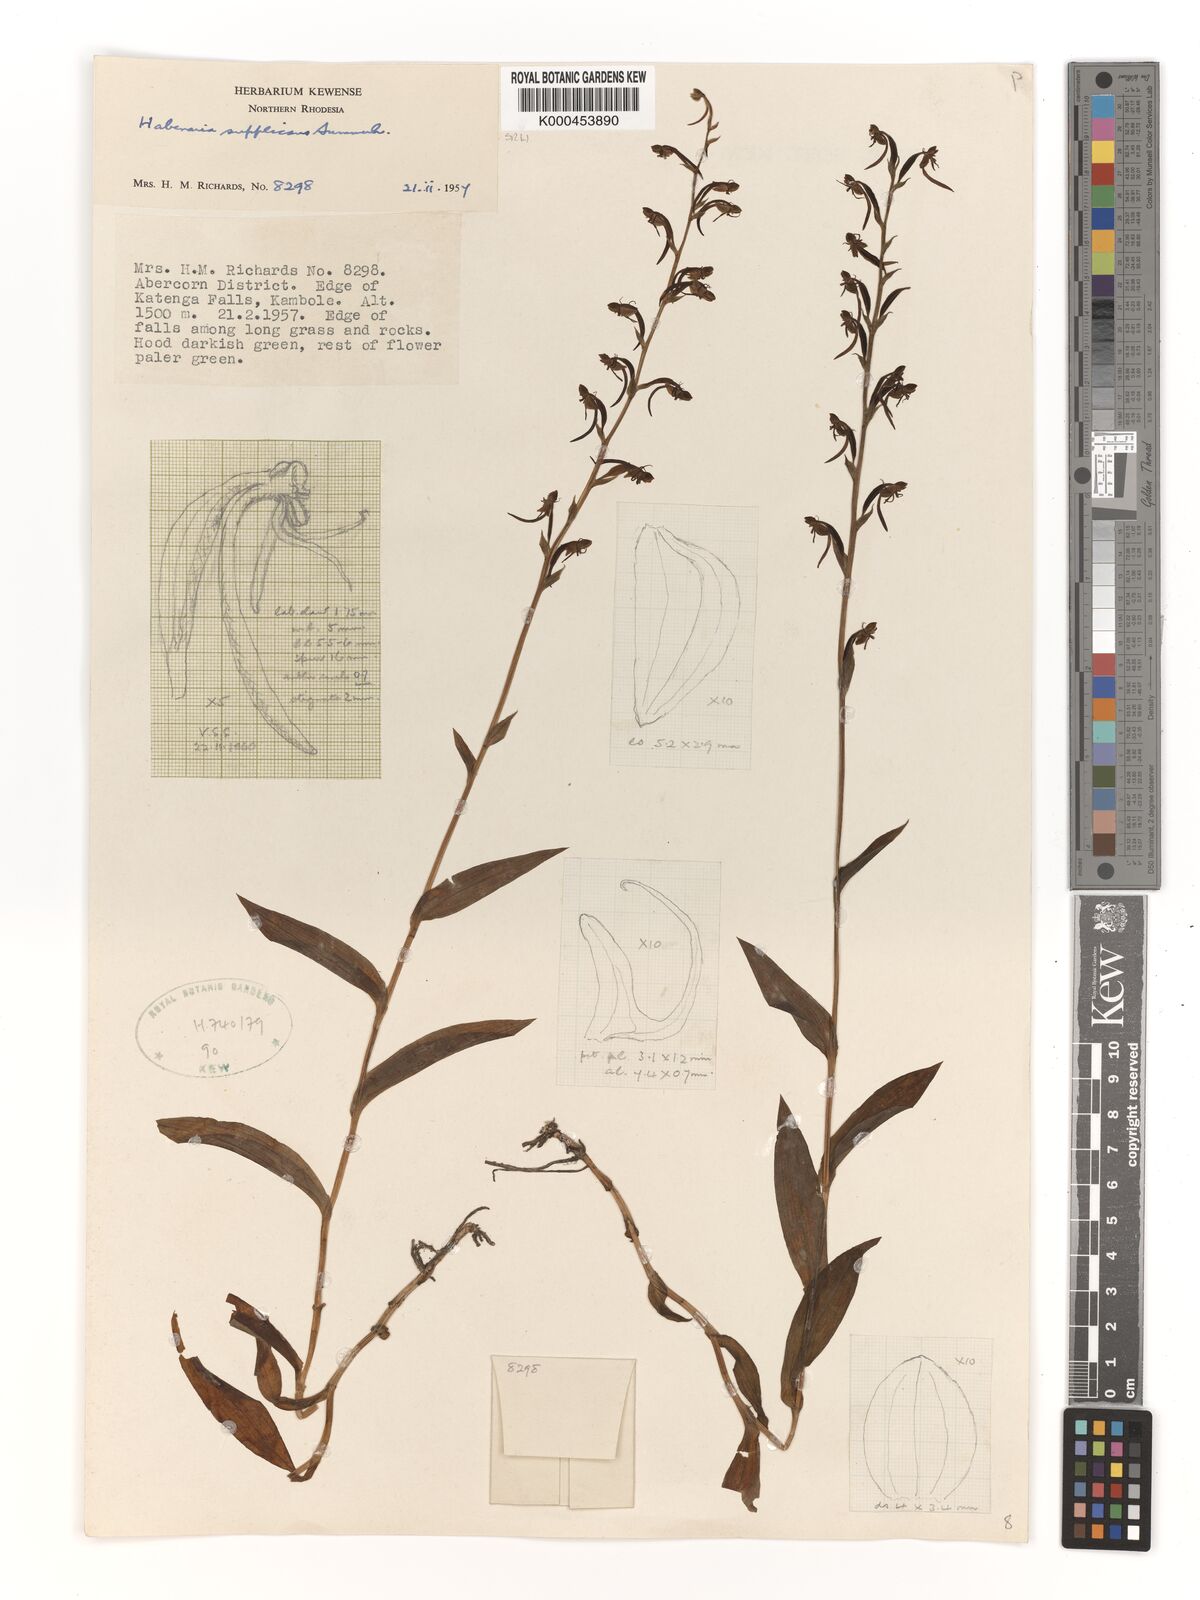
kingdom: Plantae
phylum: Tracheophyta
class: Liliopsida
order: Asparagales
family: Orchidaceae
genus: Habenaria
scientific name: Habenaria supplicans
